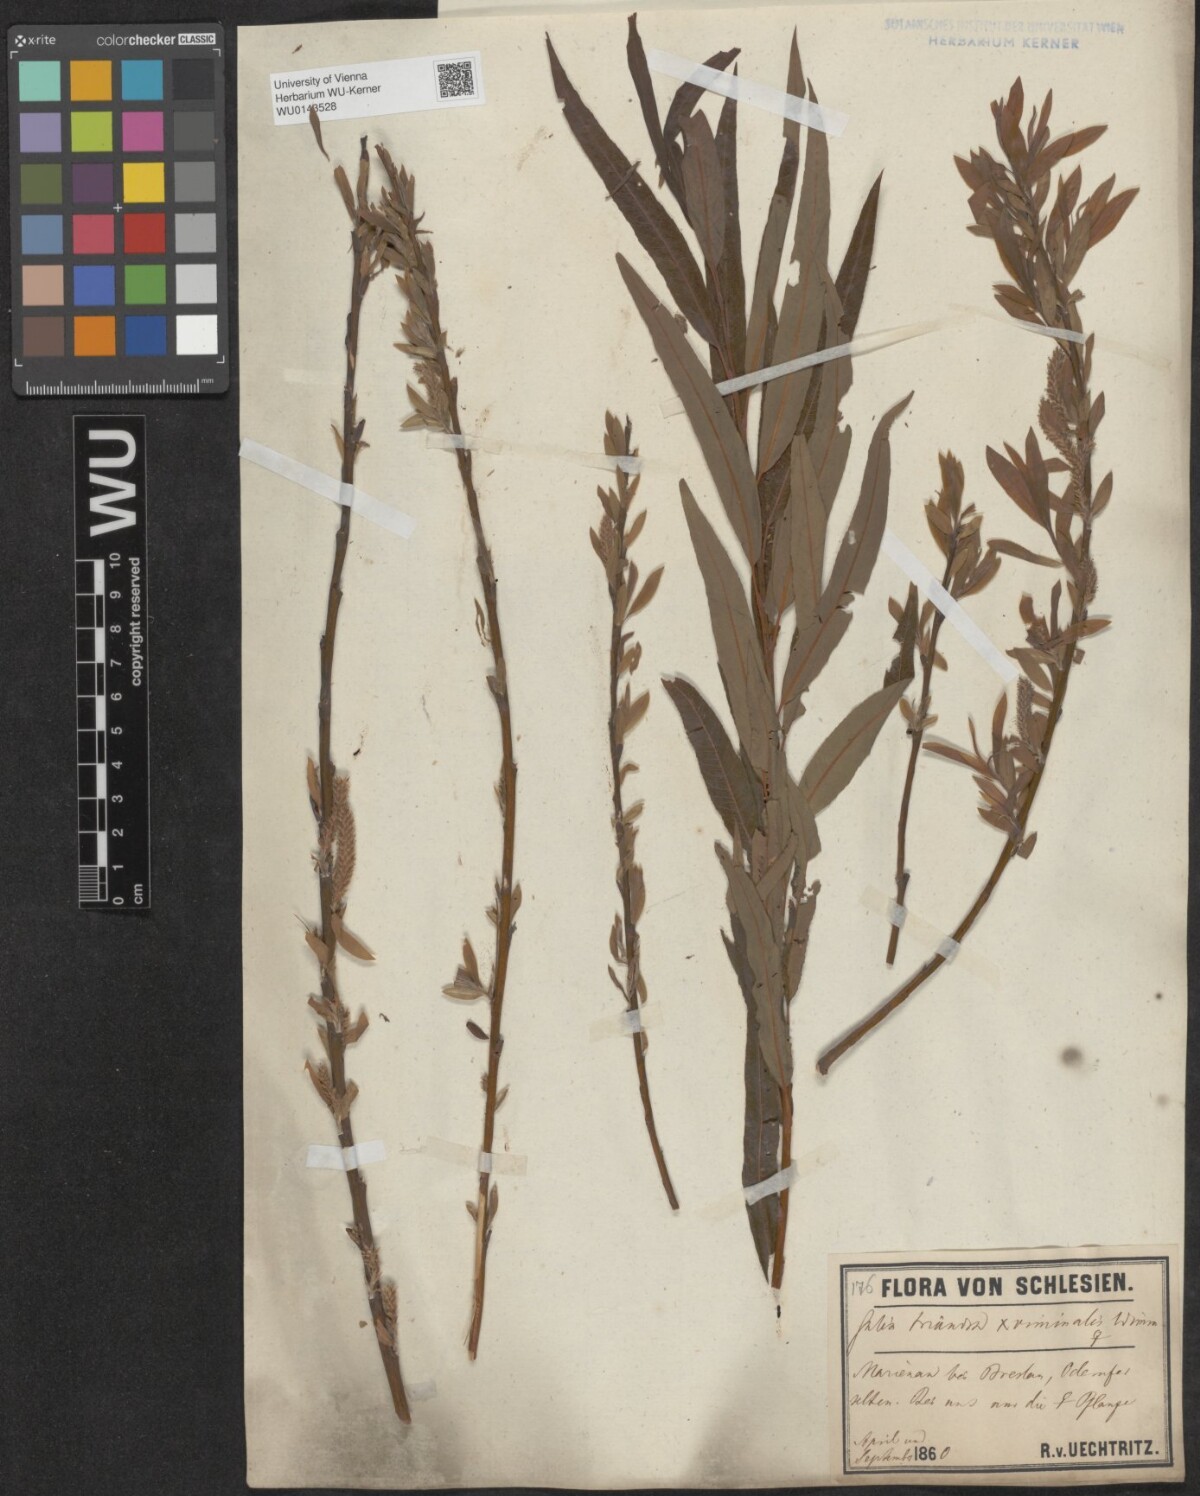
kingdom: Plantae
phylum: Tracheophyta
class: Magnoliopsida
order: Malpighiales
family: Salicaceae
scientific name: Salicaceae
